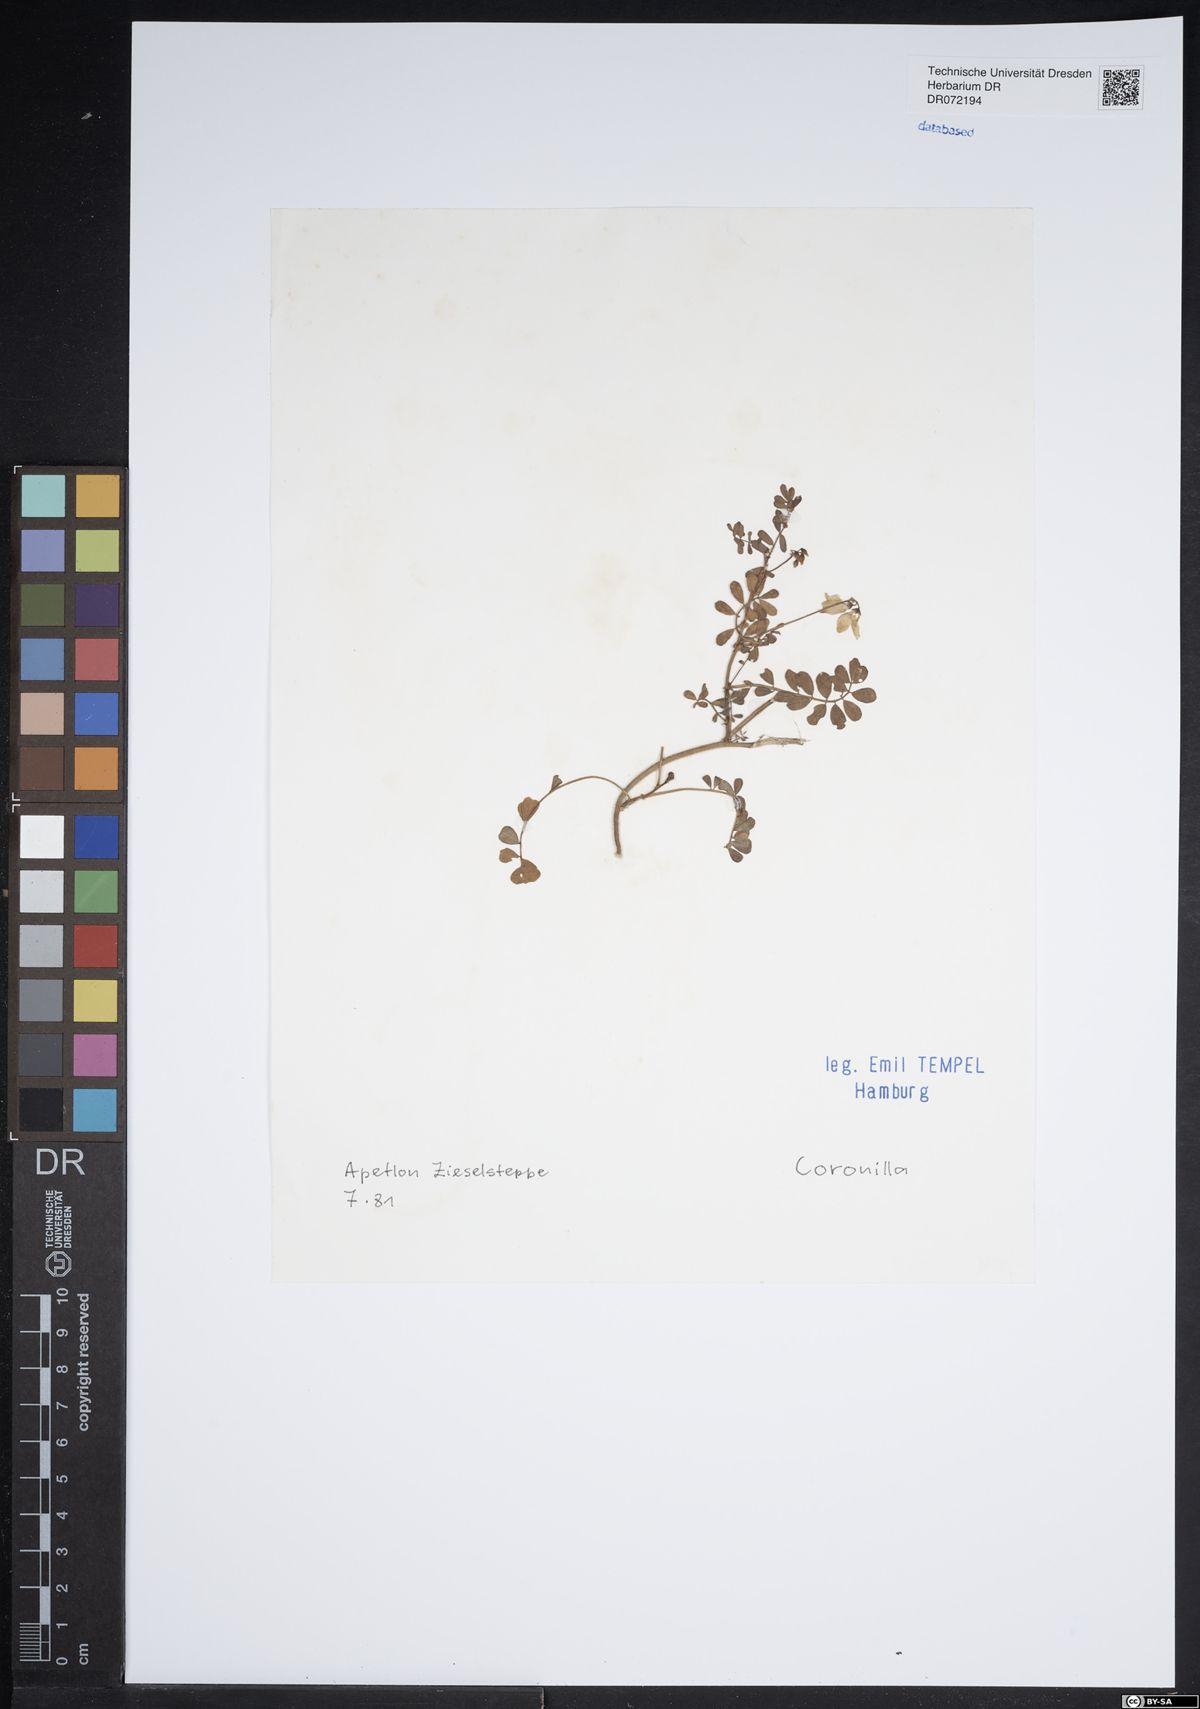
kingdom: Plantae
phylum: Tracheophyta
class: Magnoliopsida
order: Fabales
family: Fabaceae
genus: Coronilla
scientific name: Coronilla
